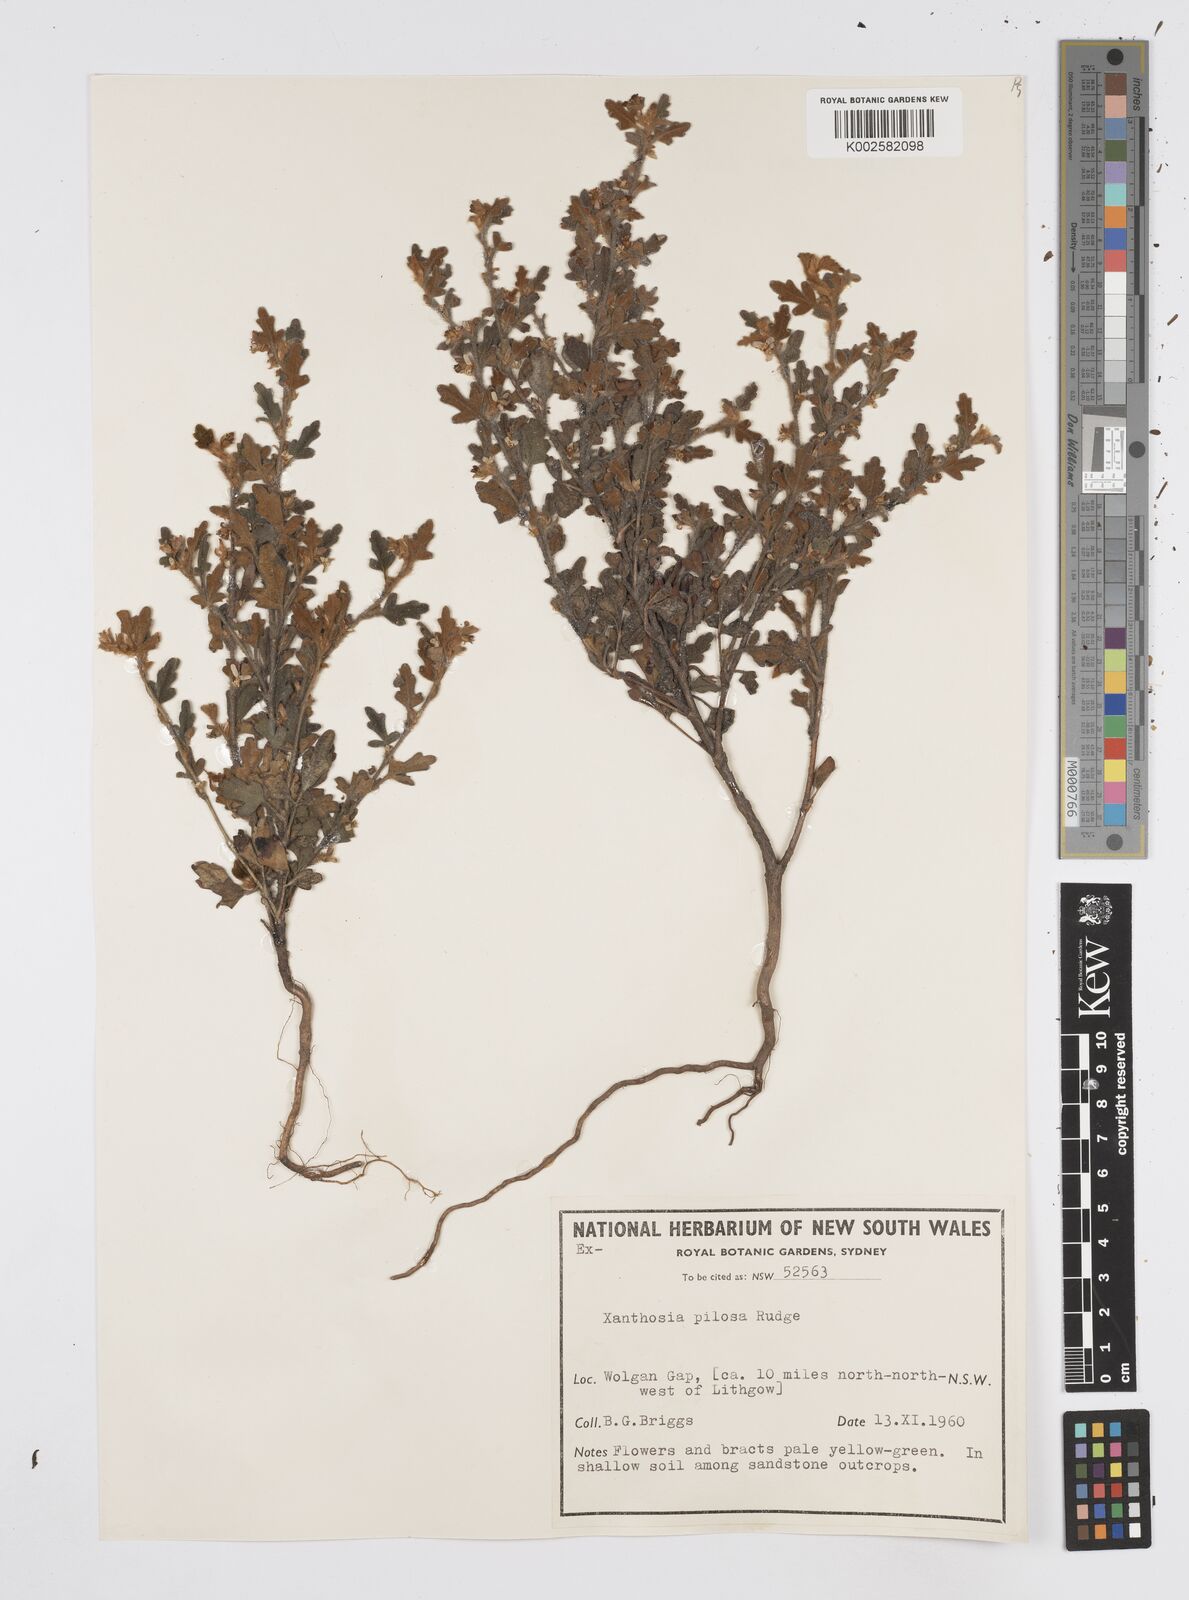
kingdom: Plantae
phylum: Tracheophyta
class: Magnoliopsida
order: Apiales
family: Apiaceae
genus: Xanthosia
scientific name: Xanthosia pilosa
